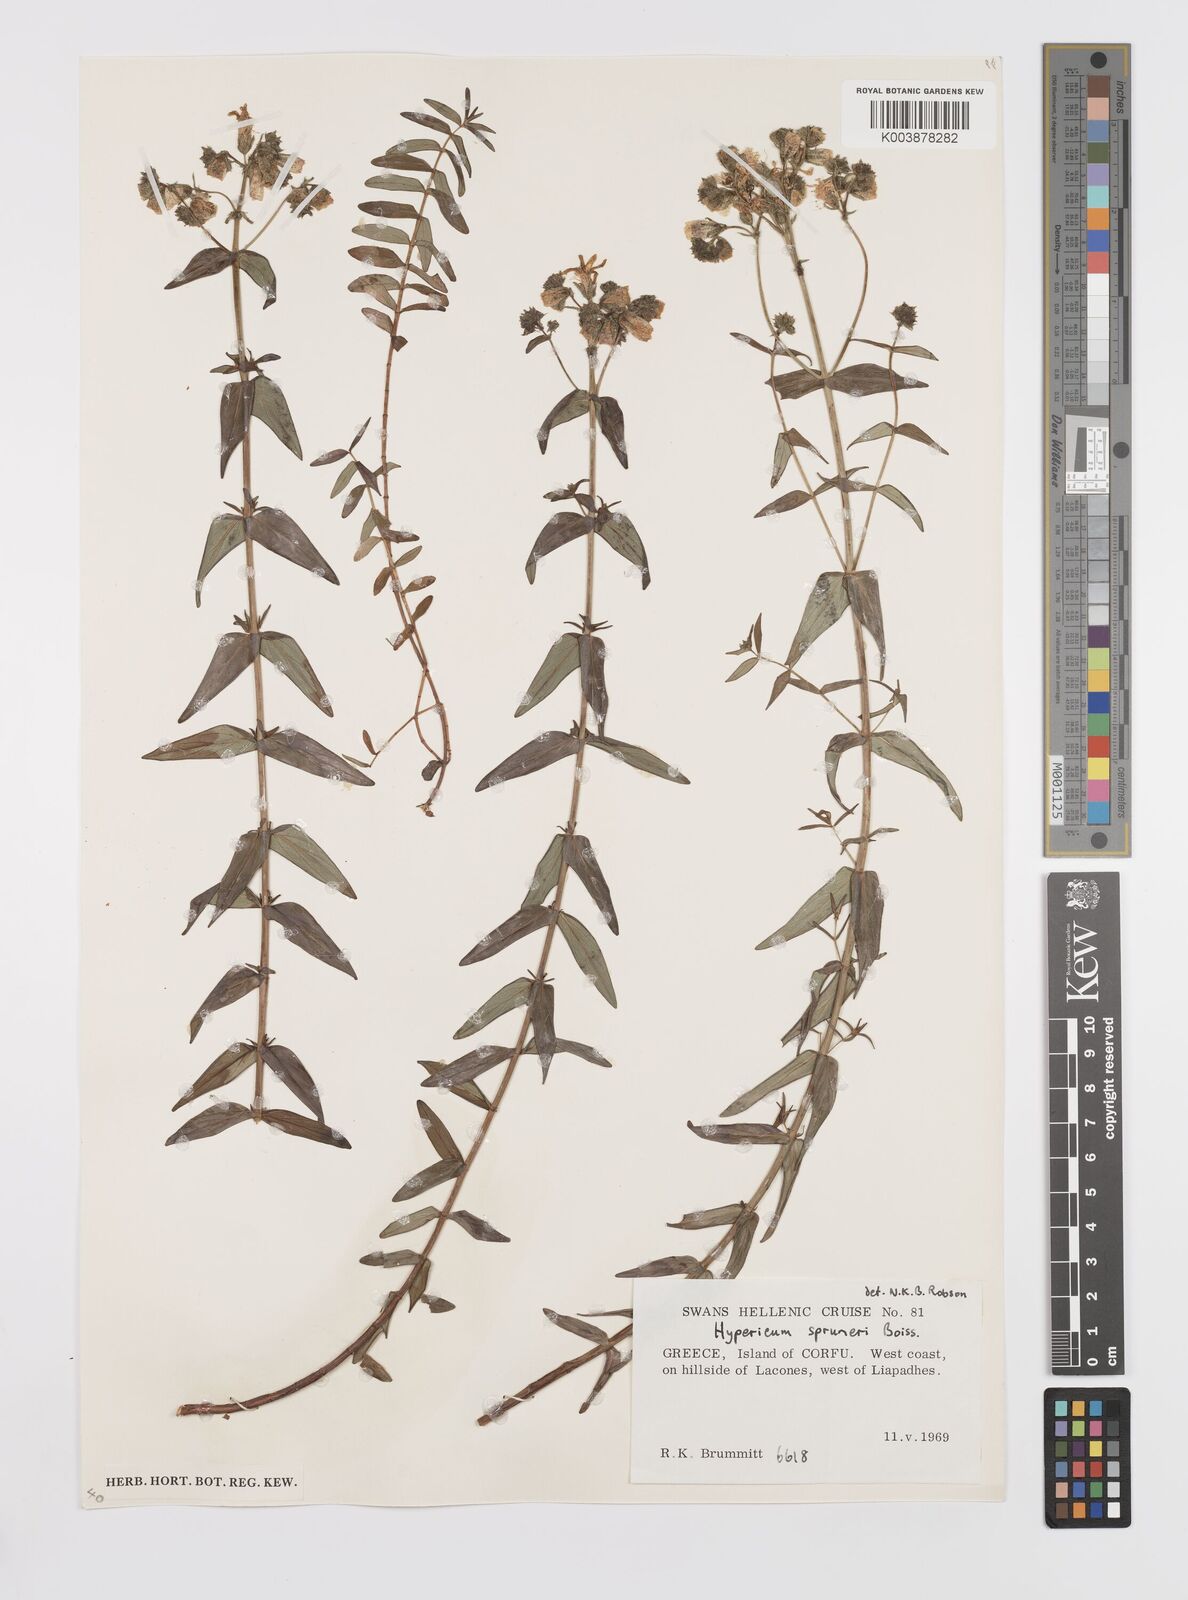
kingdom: Plantae
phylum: Tracheophyta
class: Magnoliopsida
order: Malpighiales
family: Hypericaceae
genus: Hypericum
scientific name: Hypericum spruneri
